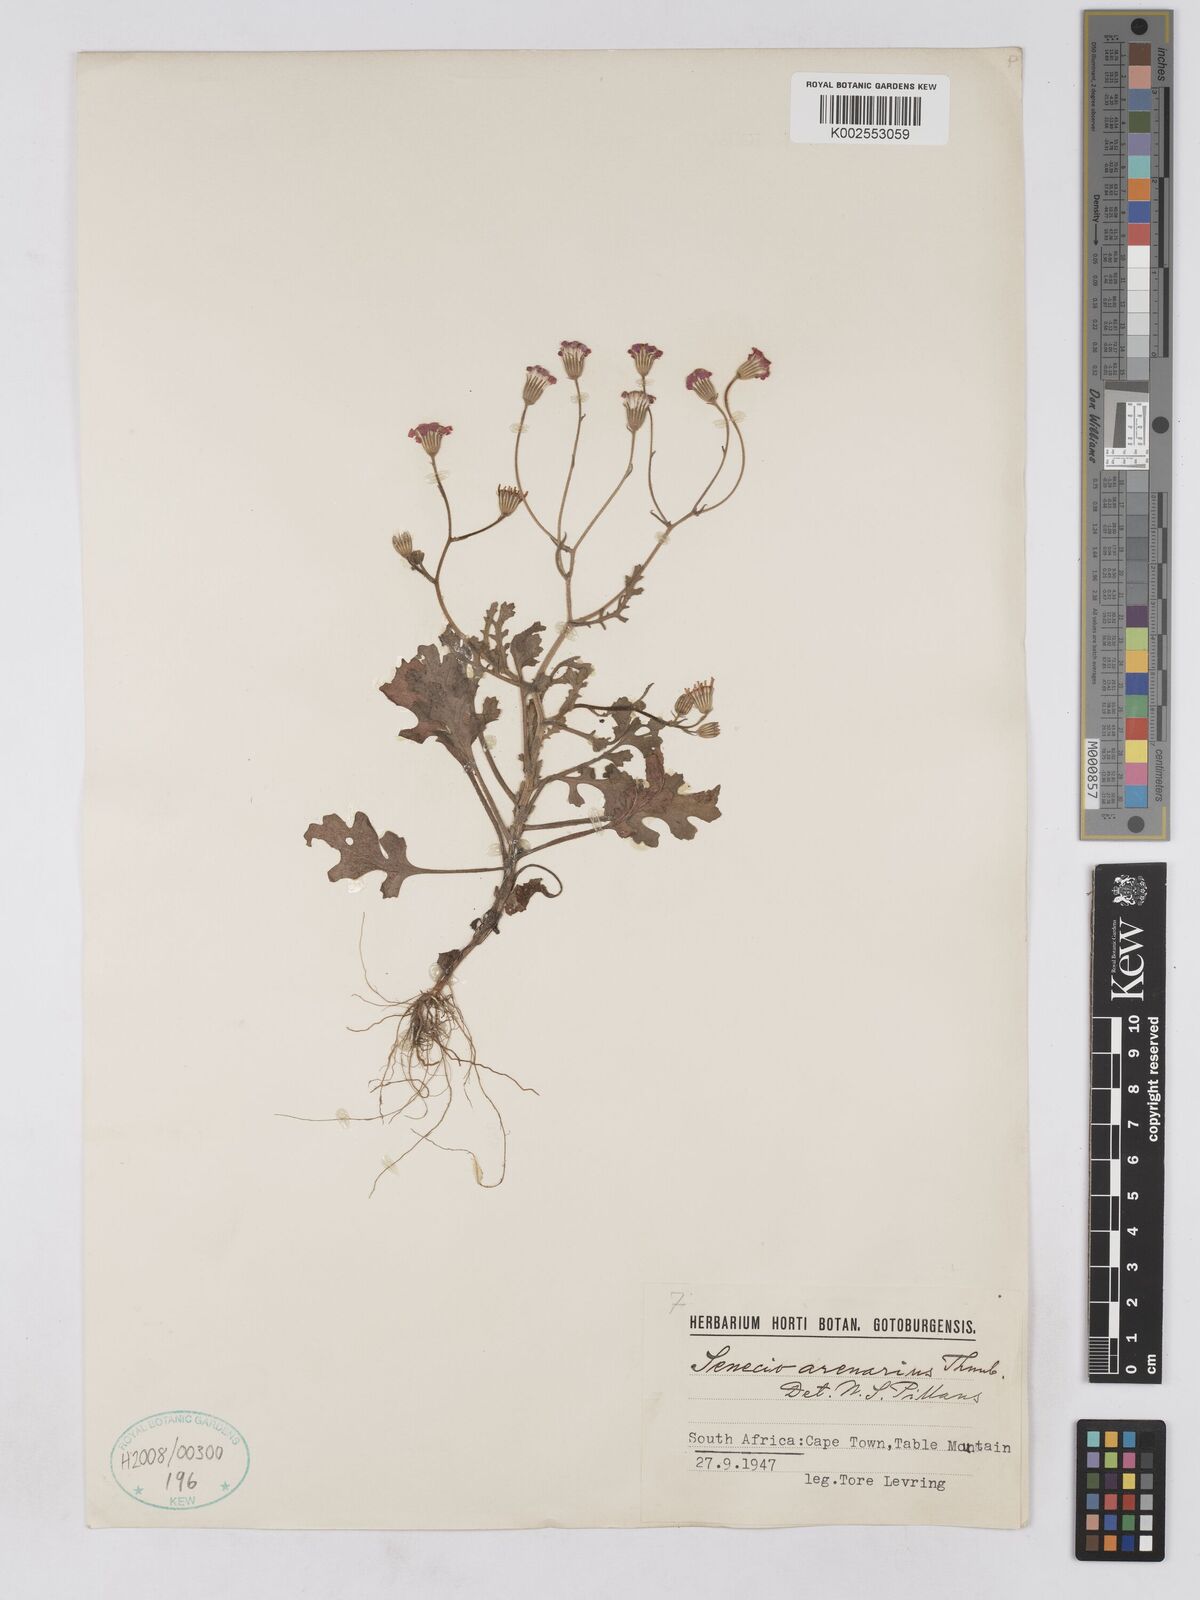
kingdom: Plantae
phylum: Tracheophyta
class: Magnoliopsida
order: Asterales
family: Asteraceae
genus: Senecio
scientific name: Senecio arenarius
